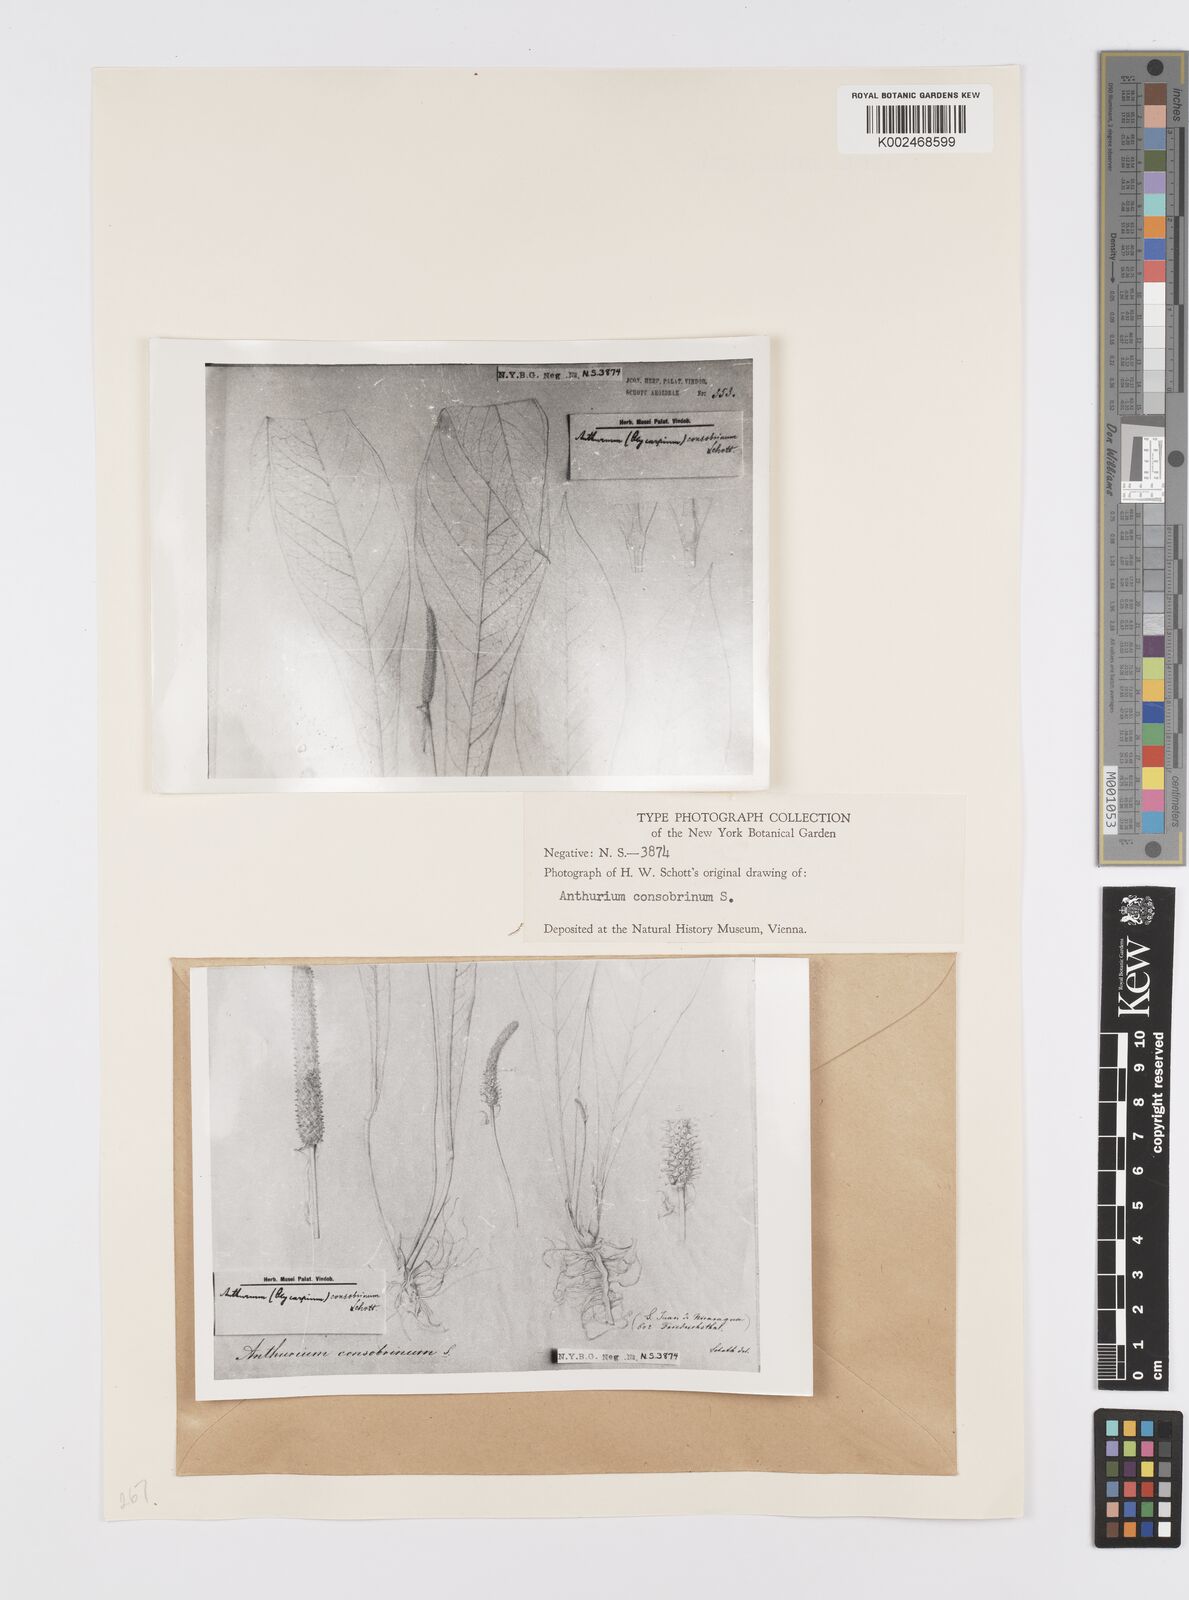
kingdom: Plantae
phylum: Tracheophyta
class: Liliopsida
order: Alismatales
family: Araceae
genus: Anthurium
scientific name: Anthurium consobrinum
